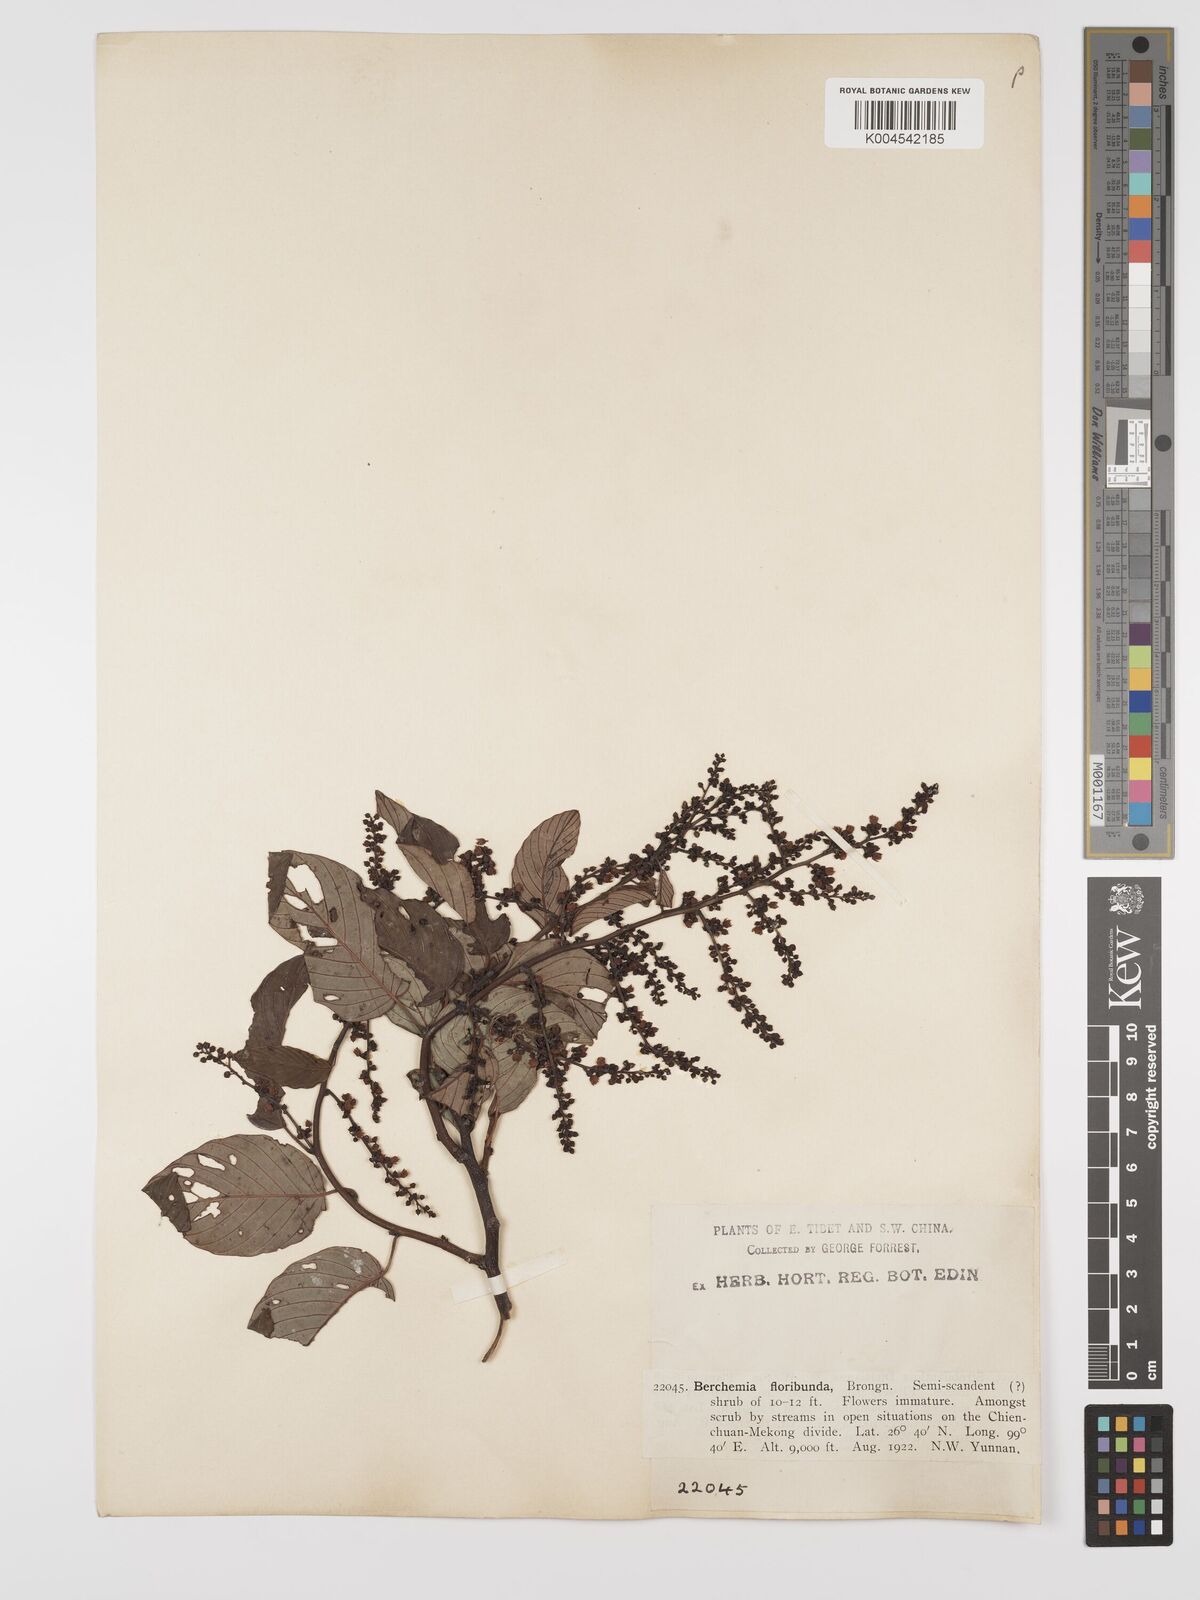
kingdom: Plantae
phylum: Tracheophyta
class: Magnoliopsida
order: Rosales
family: Rhamnaceae
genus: Berchemia
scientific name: Berchemia floribunda
